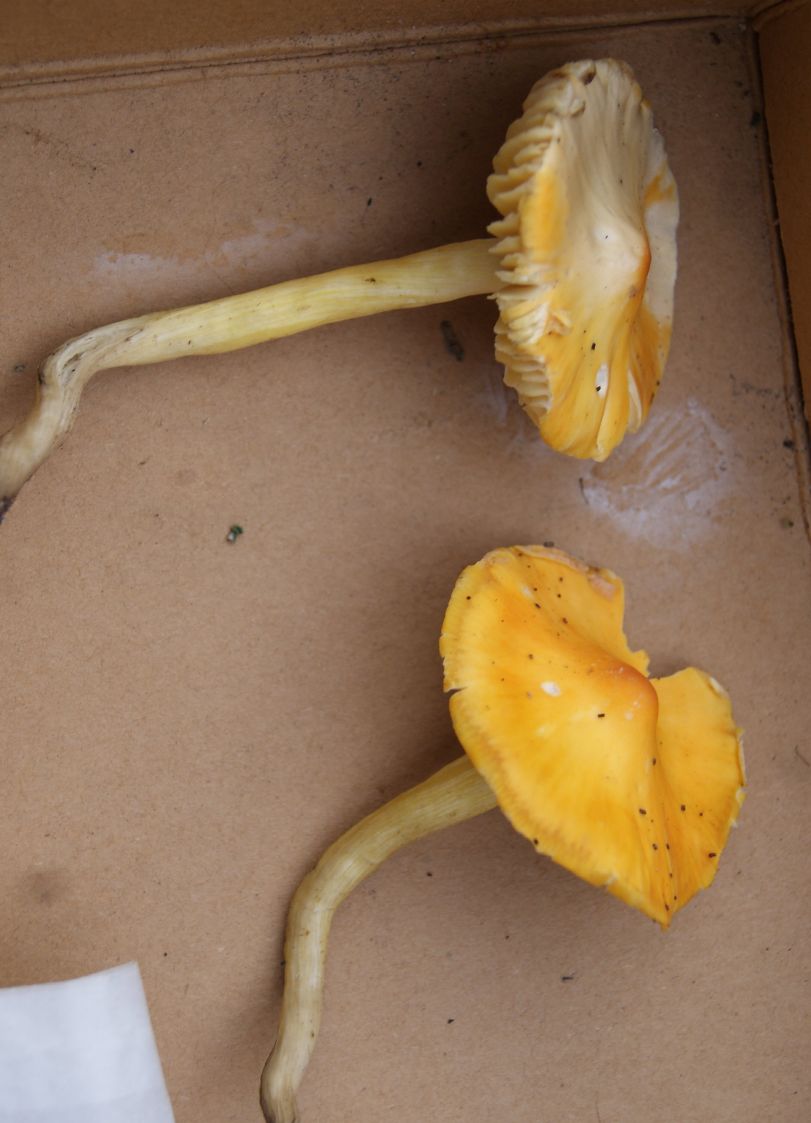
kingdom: Fungi
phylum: Basidiomycota
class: Agaricomycetes
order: Agaricales
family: Hygrophoraceae
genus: Hygrocybe
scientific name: Hygrocybe punicea
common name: skarlagen-vokshat
